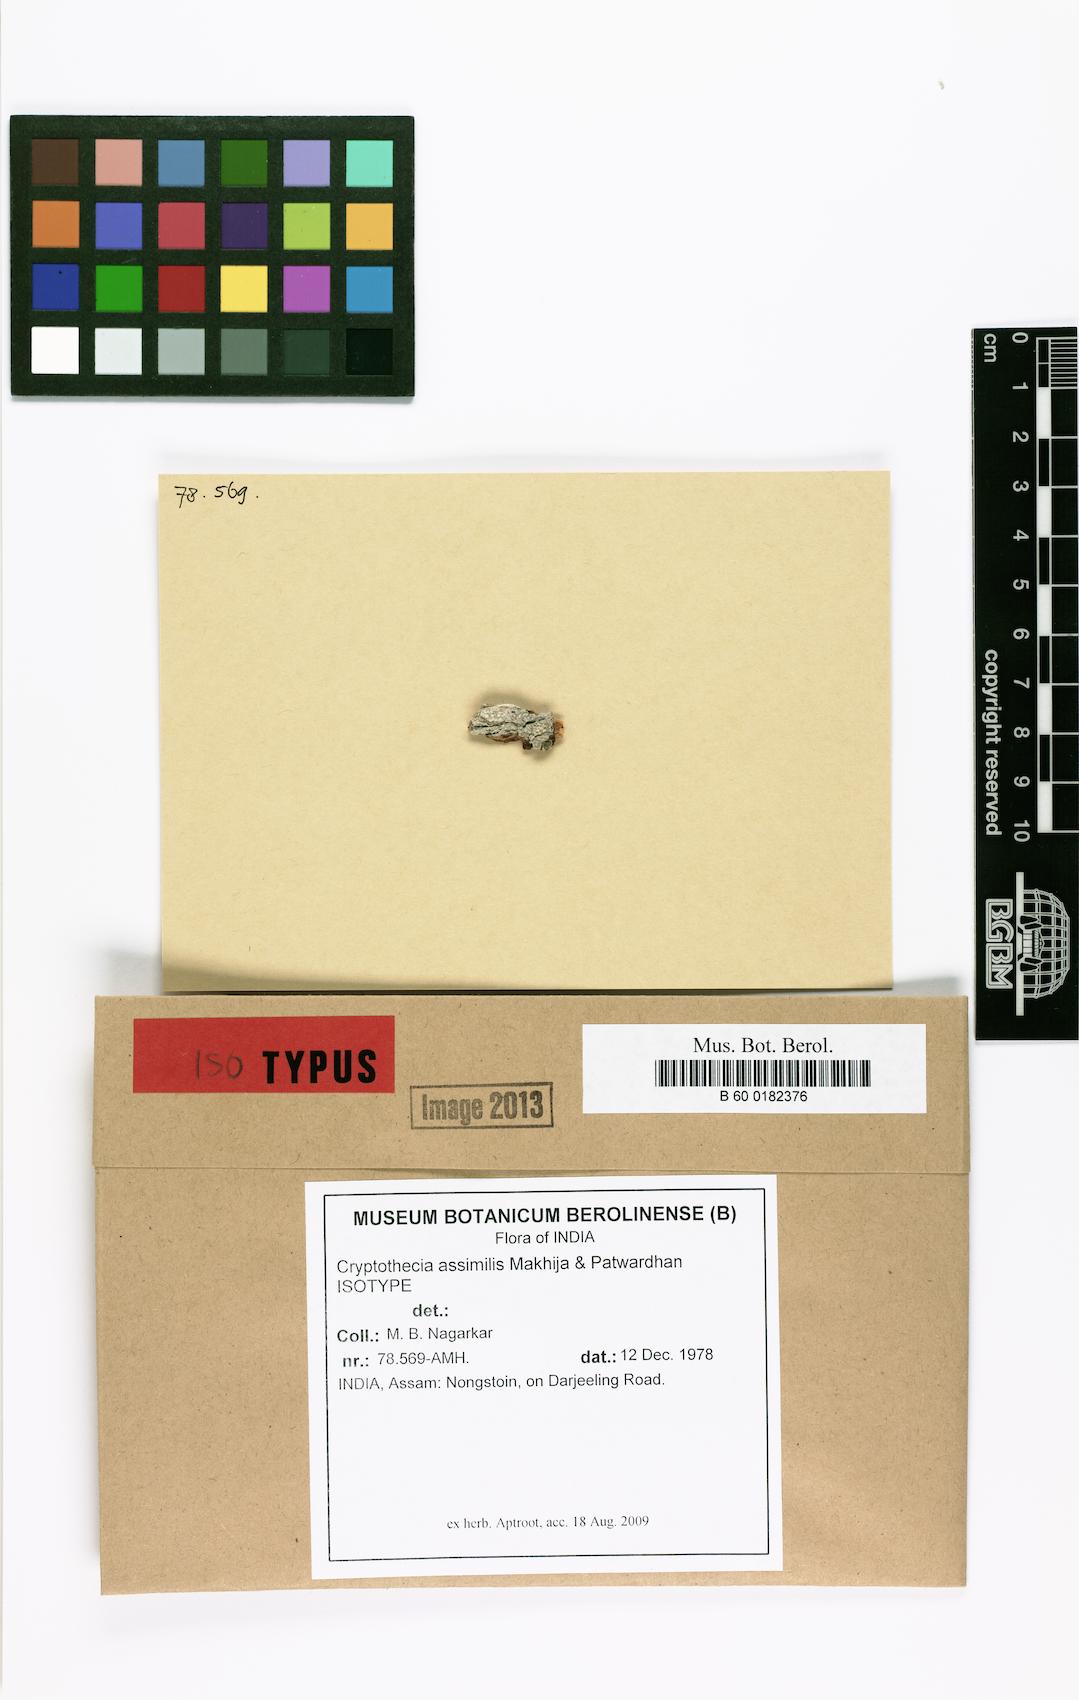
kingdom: Fungi
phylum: Ascomycota
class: Arthoniomycetes
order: Arthoniales
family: Arthoniaceae
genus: Cryptothecia
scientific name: Cryptothecia
